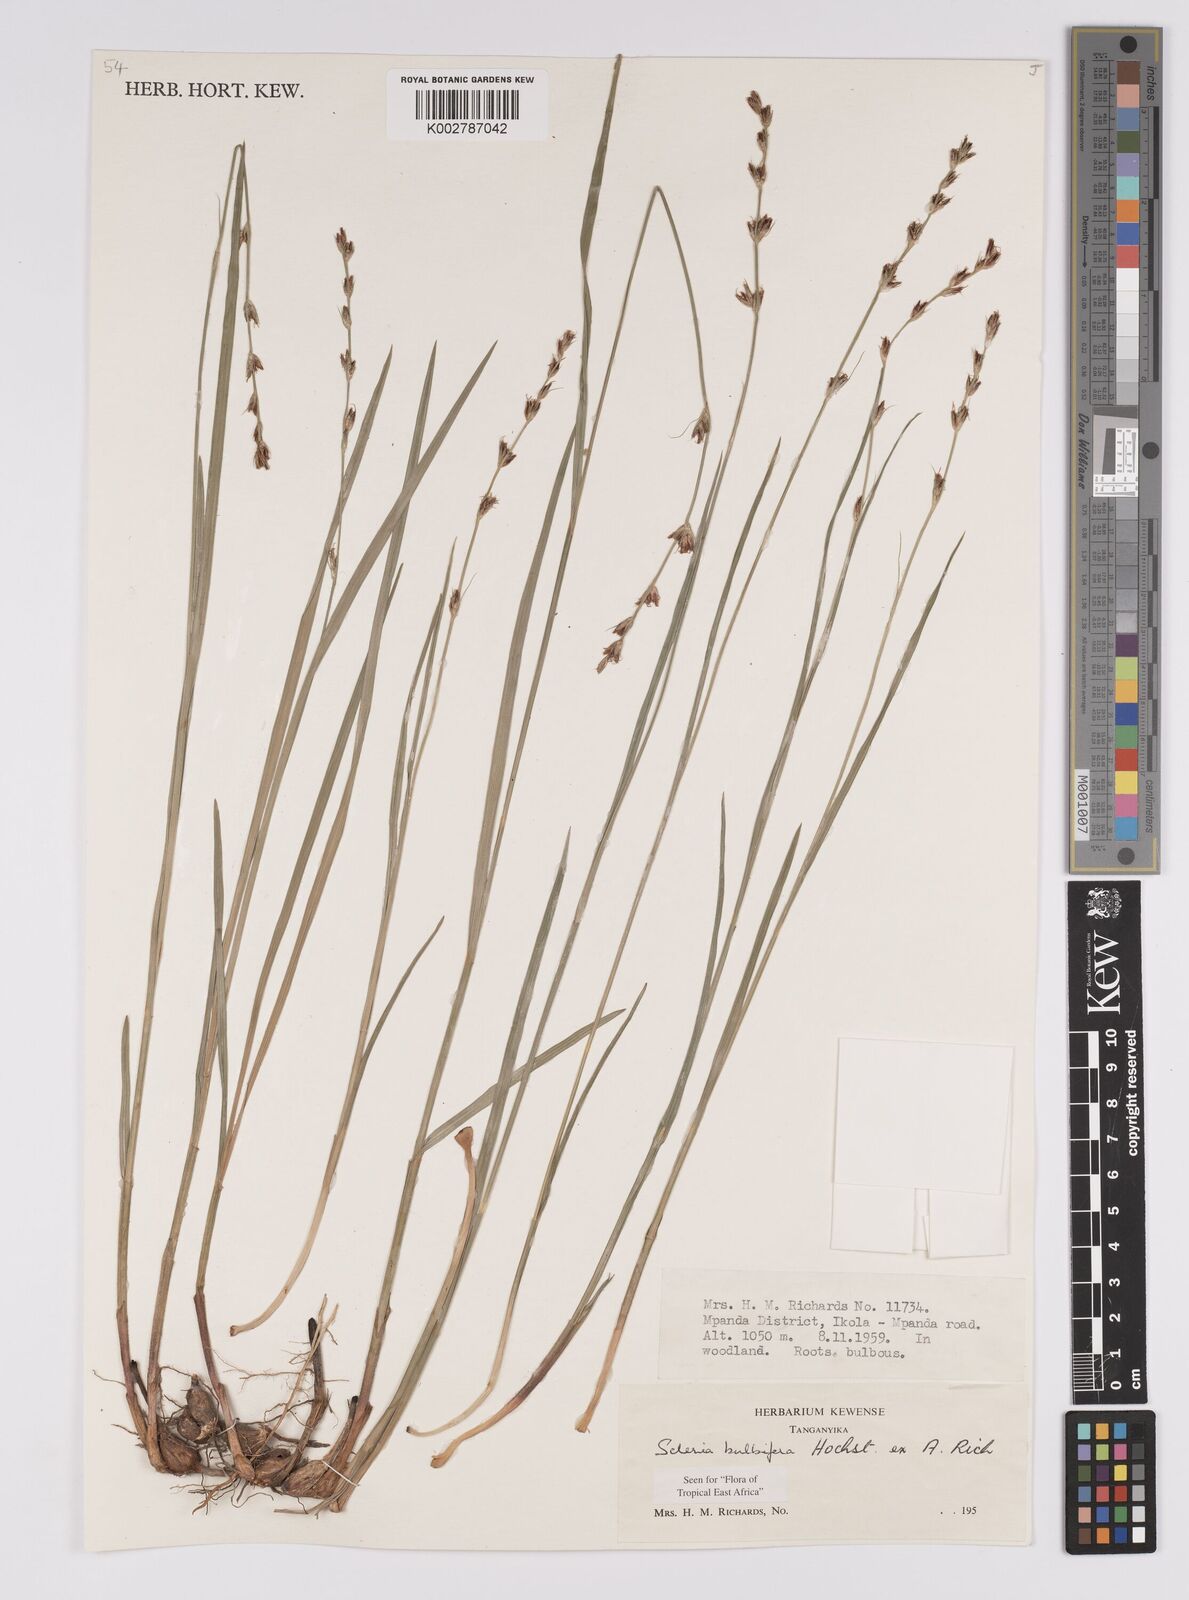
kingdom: Plantae
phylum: Tracheophyta
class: Liliopsida
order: Poales
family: Cyperaceae
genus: Scleria
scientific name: Scleria bulbifera
